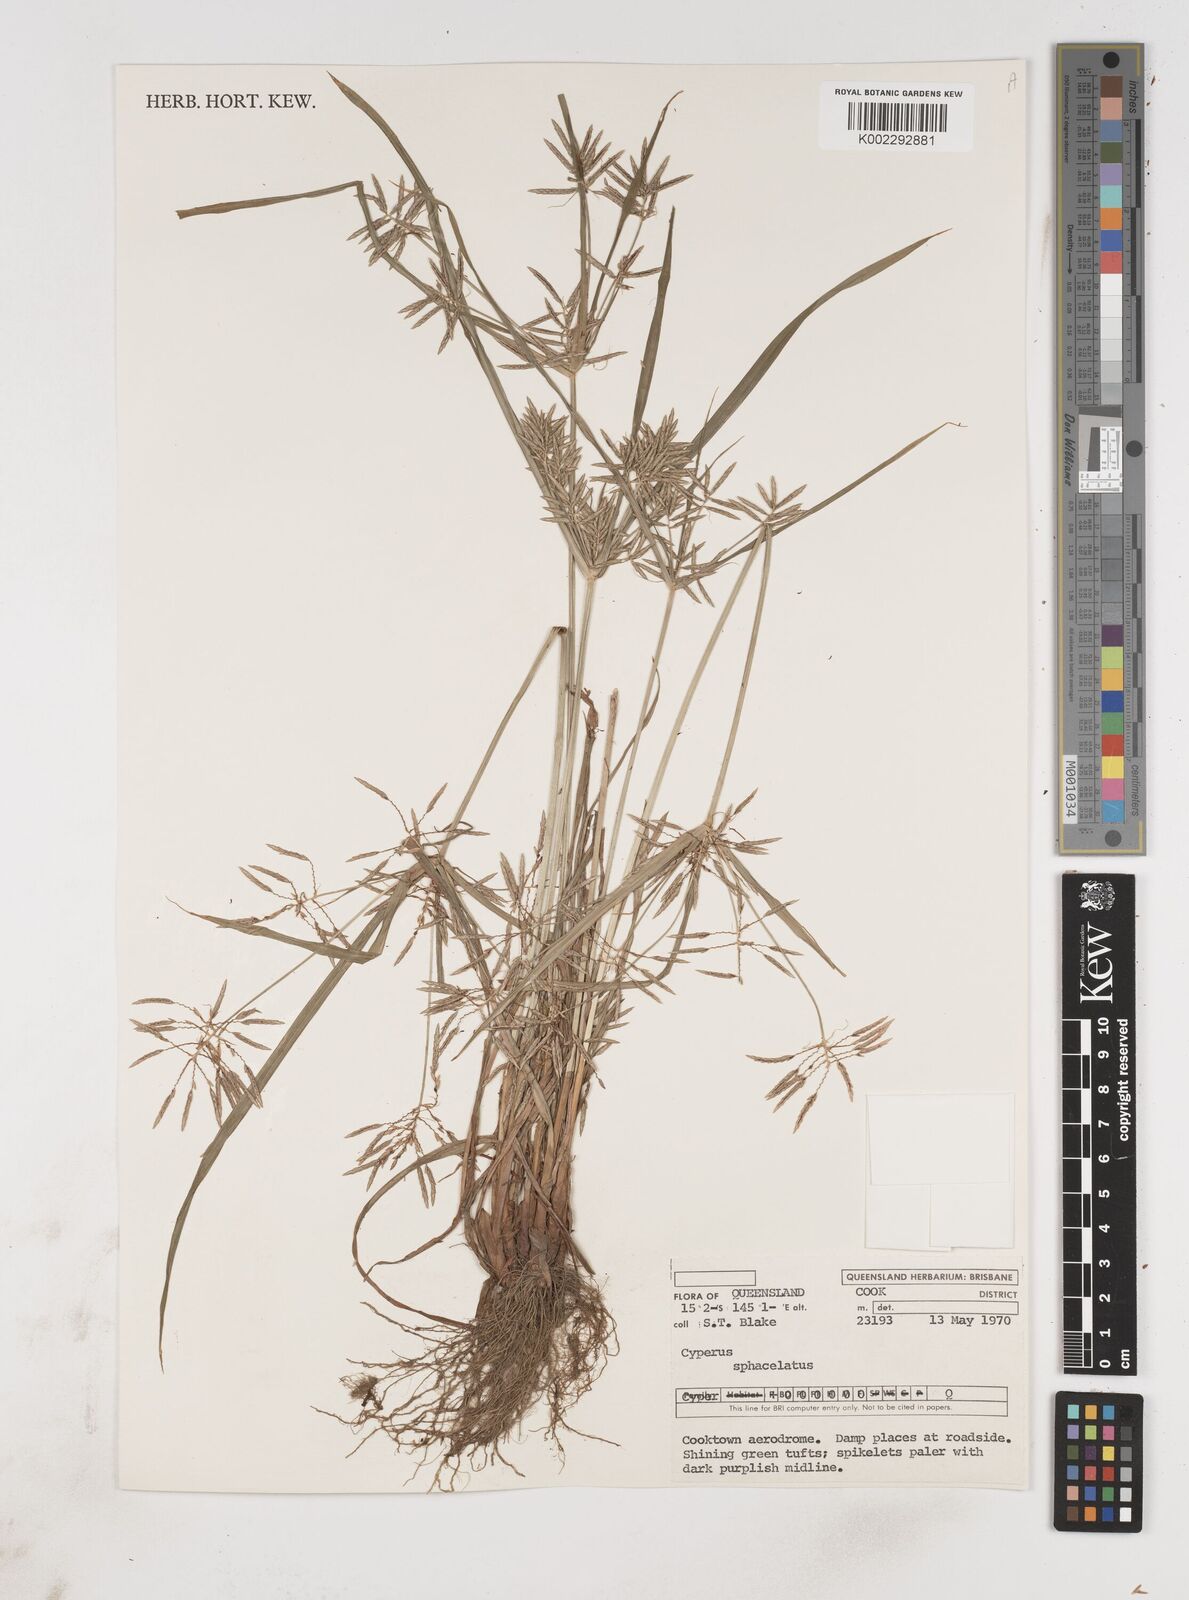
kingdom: Plantae
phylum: Tracheophyta
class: Liliopsida
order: Poales
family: Cyperaceae
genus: Cyperus
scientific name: Cyperus sphacelatus
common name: Roadside flatsedge
